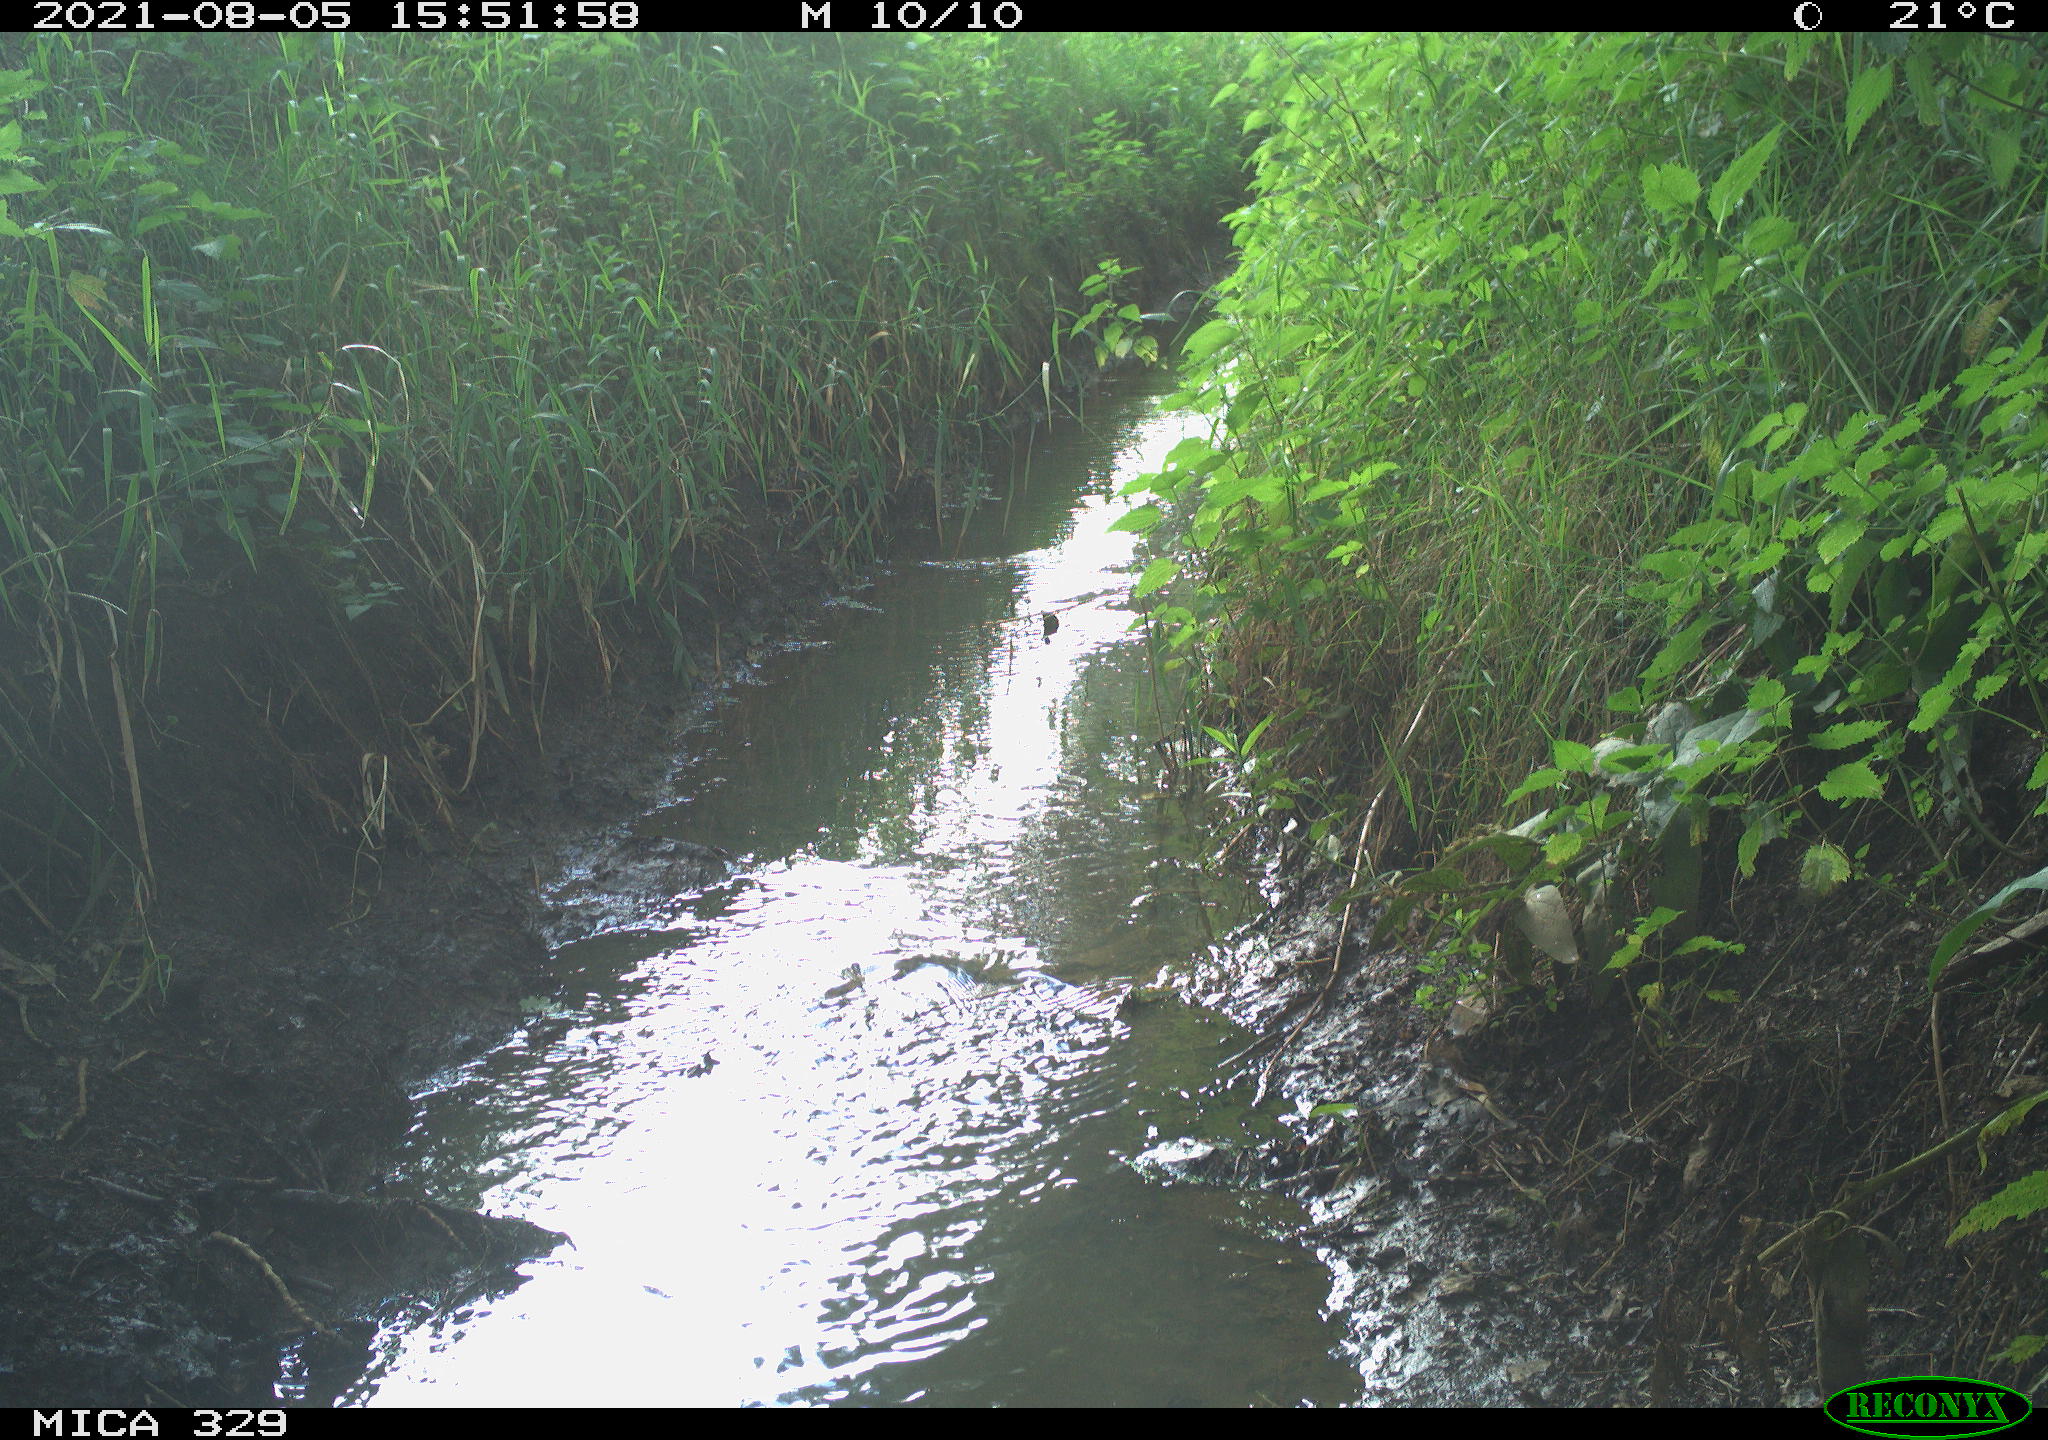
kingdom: Animalia
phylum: Chordata
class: Aves
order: Columbiformes
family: Columbidae
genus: Columba
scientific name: Columba palumbus
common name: Common wood pigeon
